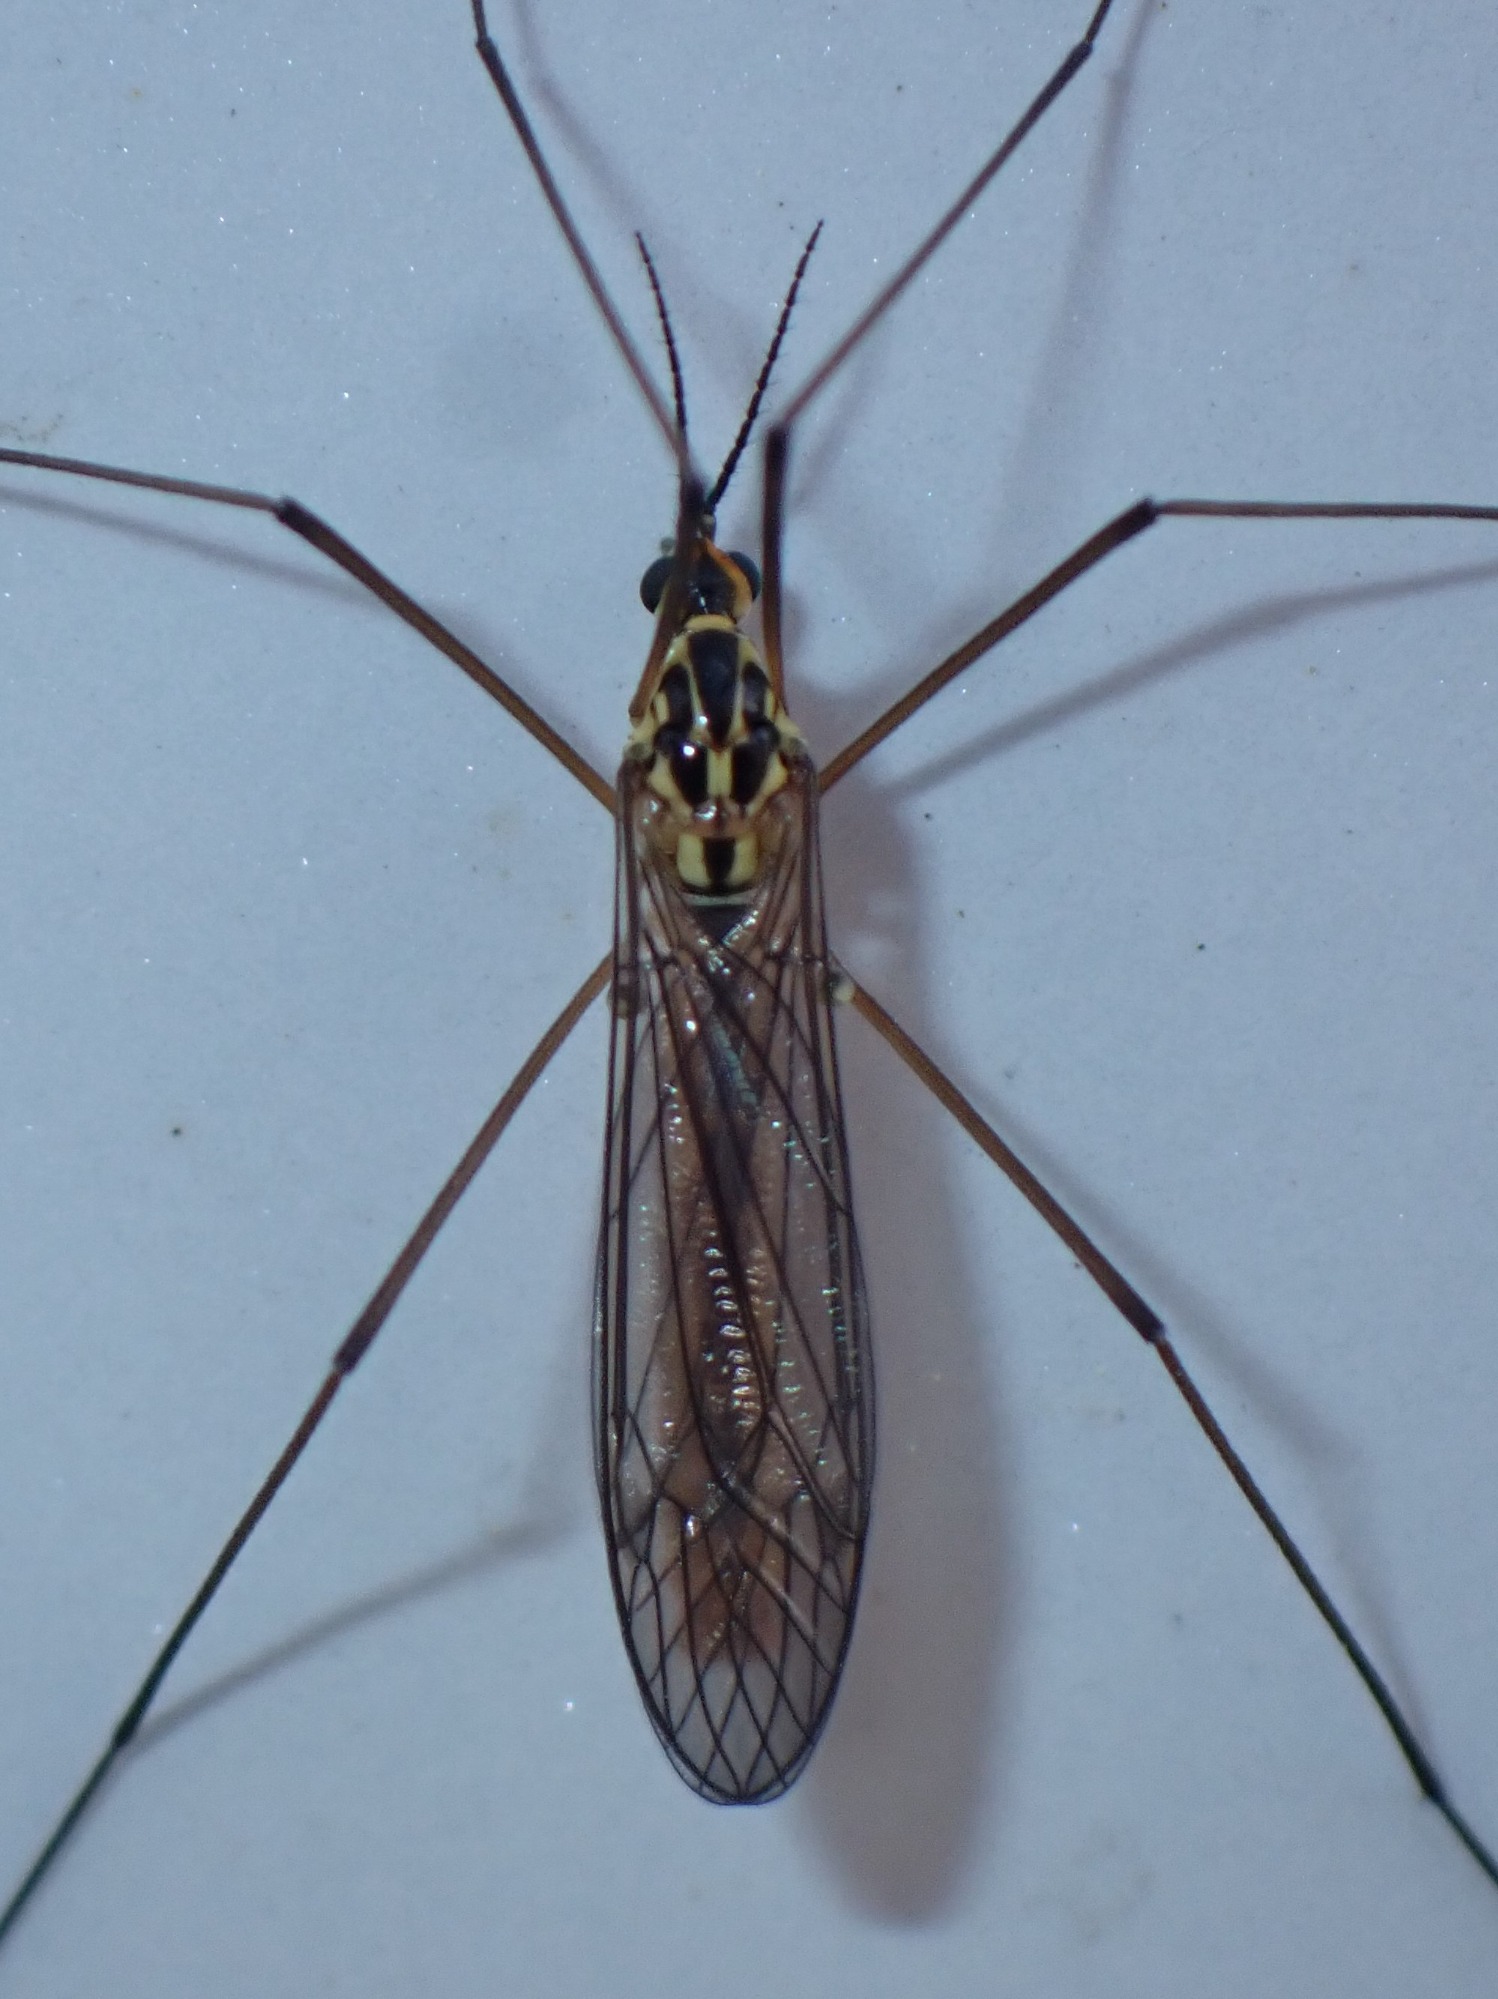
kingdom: Animalia
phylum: Arthropoda
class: Insecta
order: Diptera
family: Tipulidae
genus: Nephrotoma
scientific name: Nephrotoma submaculosa
